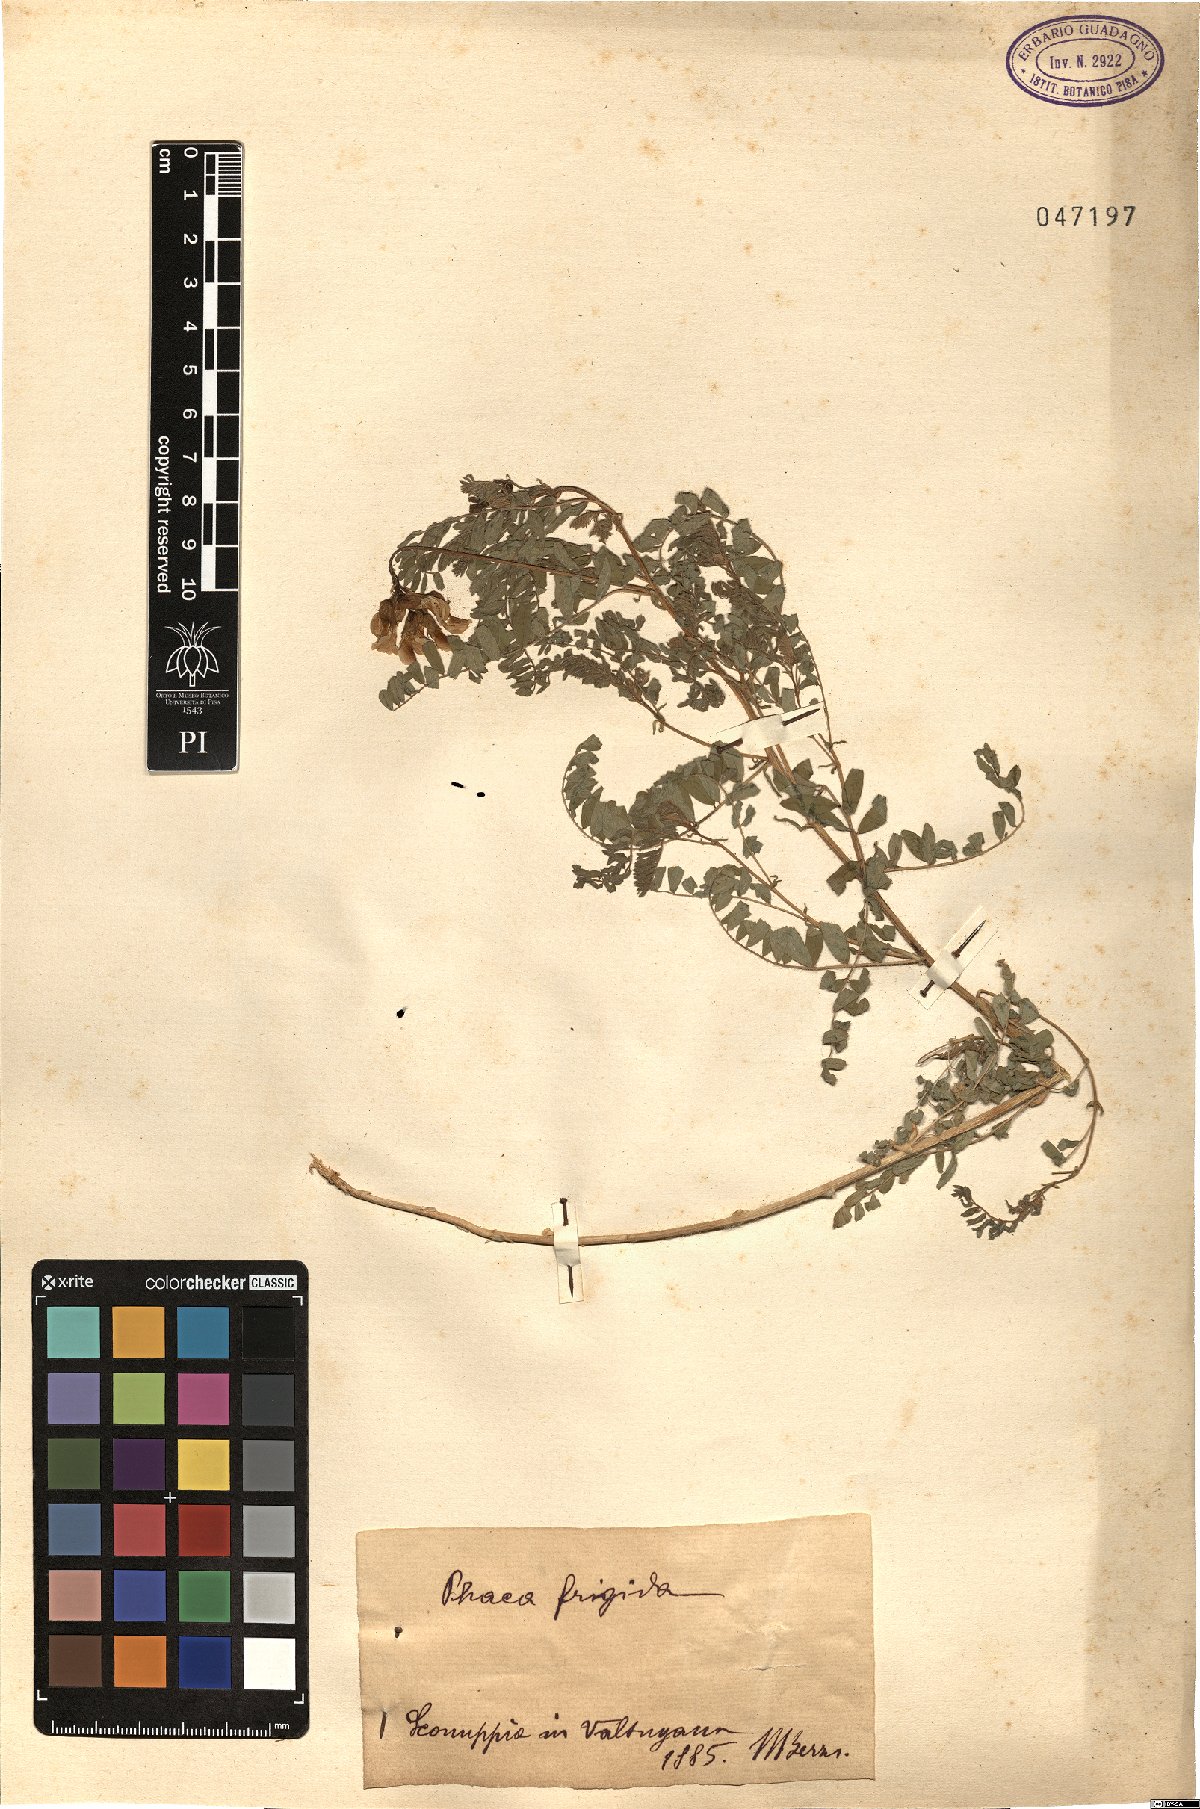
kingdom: Plantae
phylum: Tracheophyta
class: Magnoliopsida
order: Fabales
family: Fabaceae
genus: Astragalus
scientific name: Astragalus frigidus
